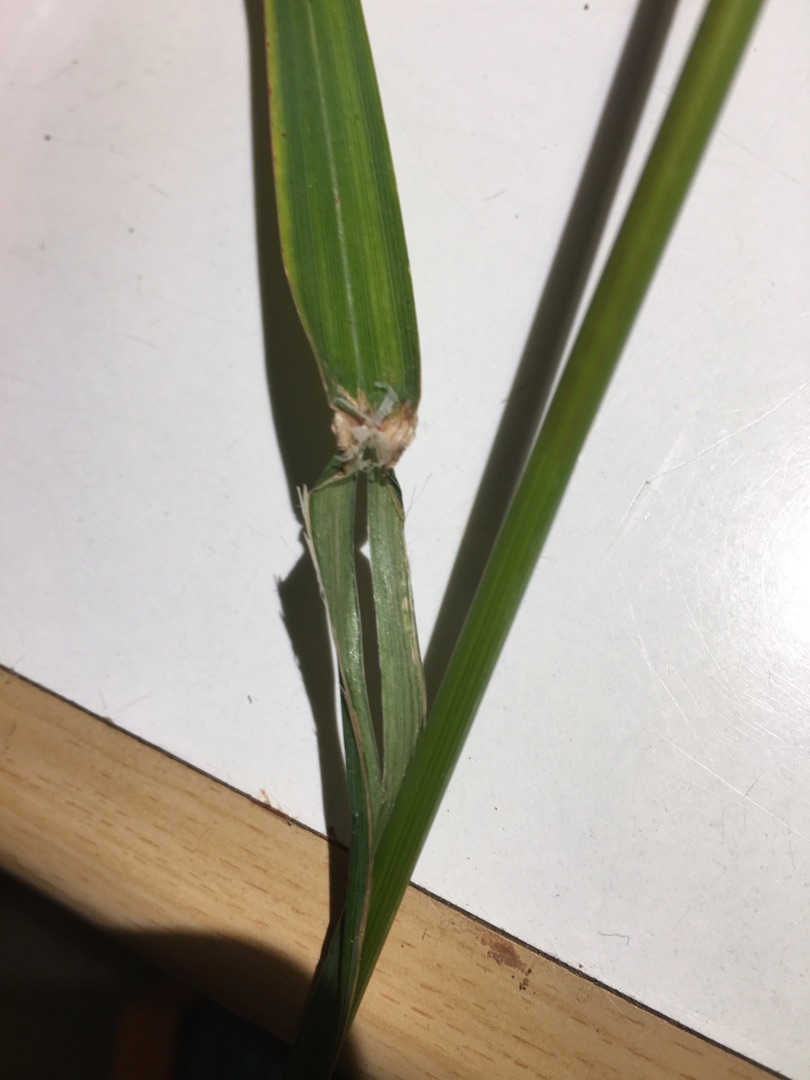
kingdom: Plantae
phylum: Tracheophyta
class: Liliopsida
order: Poales
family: Poaceae
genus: Dactylis
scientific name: Dactylis glomerata
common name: Almindelig hundegræs
